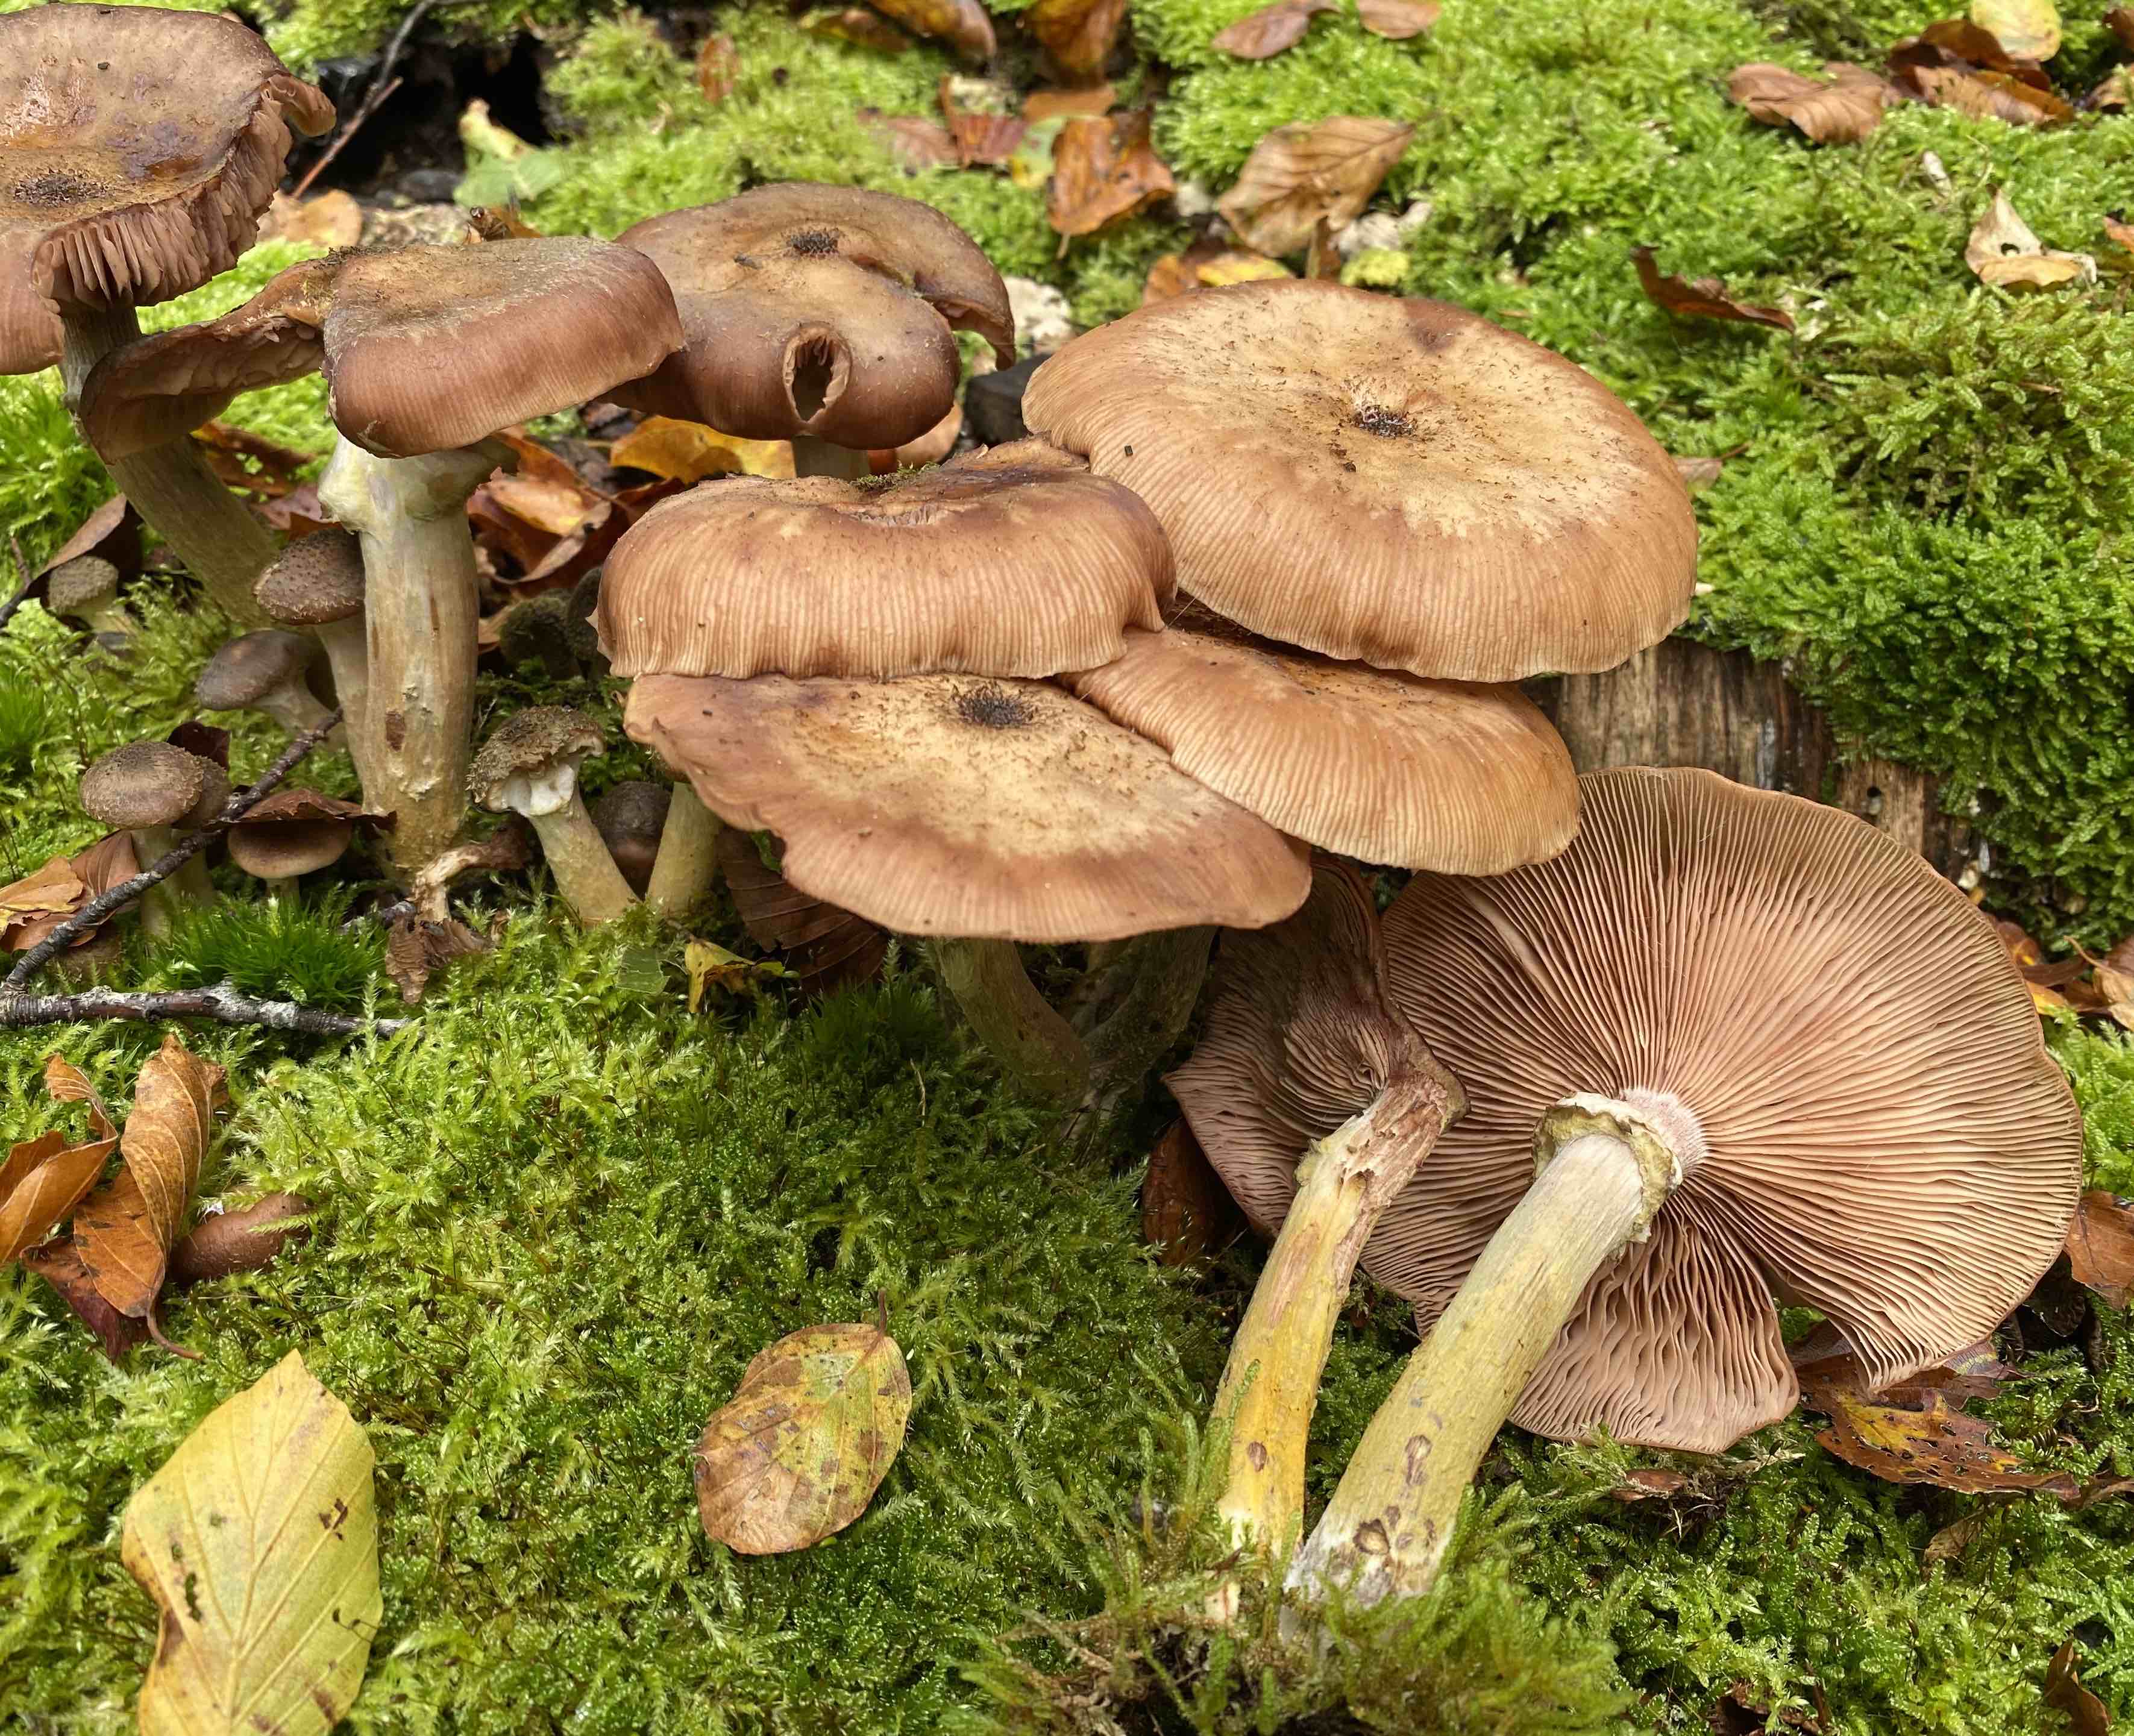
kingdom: Fungi
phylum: Basidiomycota
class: Agaricomycetes
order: Agaricales
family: Physalacriaceae
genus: Armillaria
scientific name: Armillaria lutea
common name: køllestokket honningsvamp
